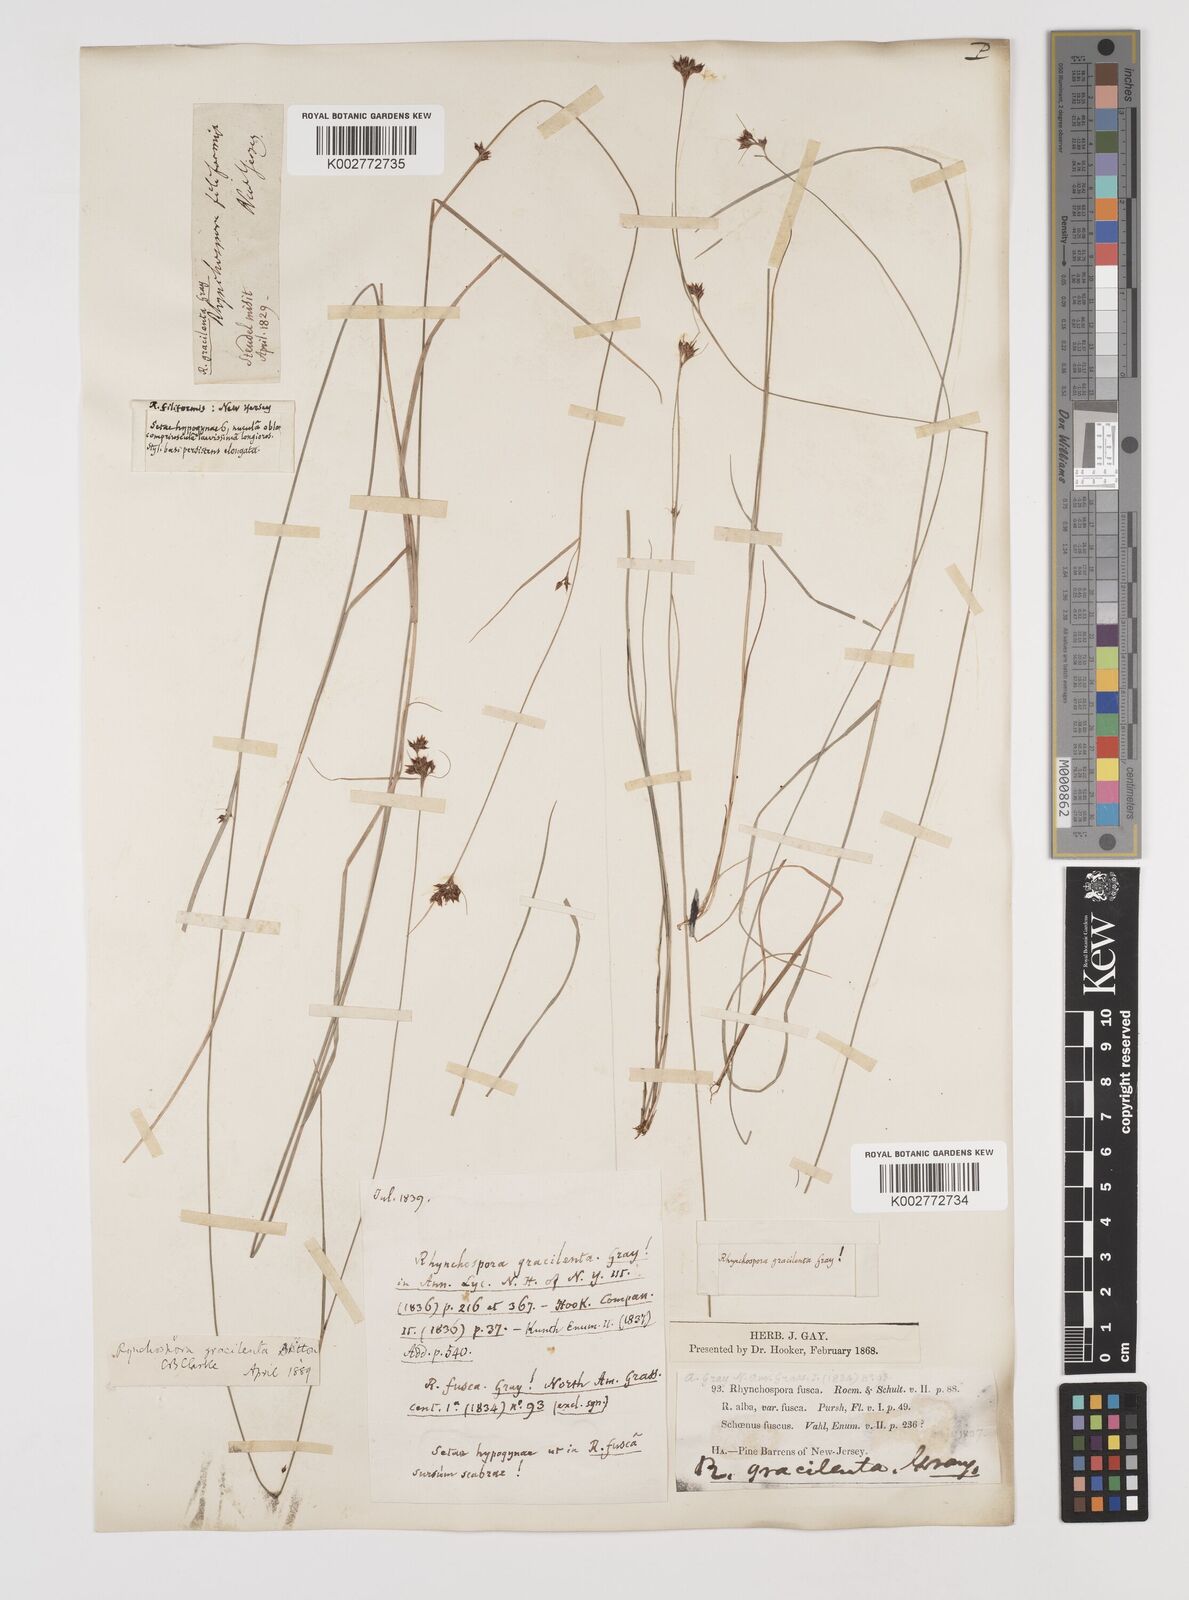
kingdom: Plantae
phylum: Tracheophyta
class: Liliopsida
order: Poales
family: Cyperaceae
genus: Rhynchospora
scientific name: Rhynchospora gracilenta
